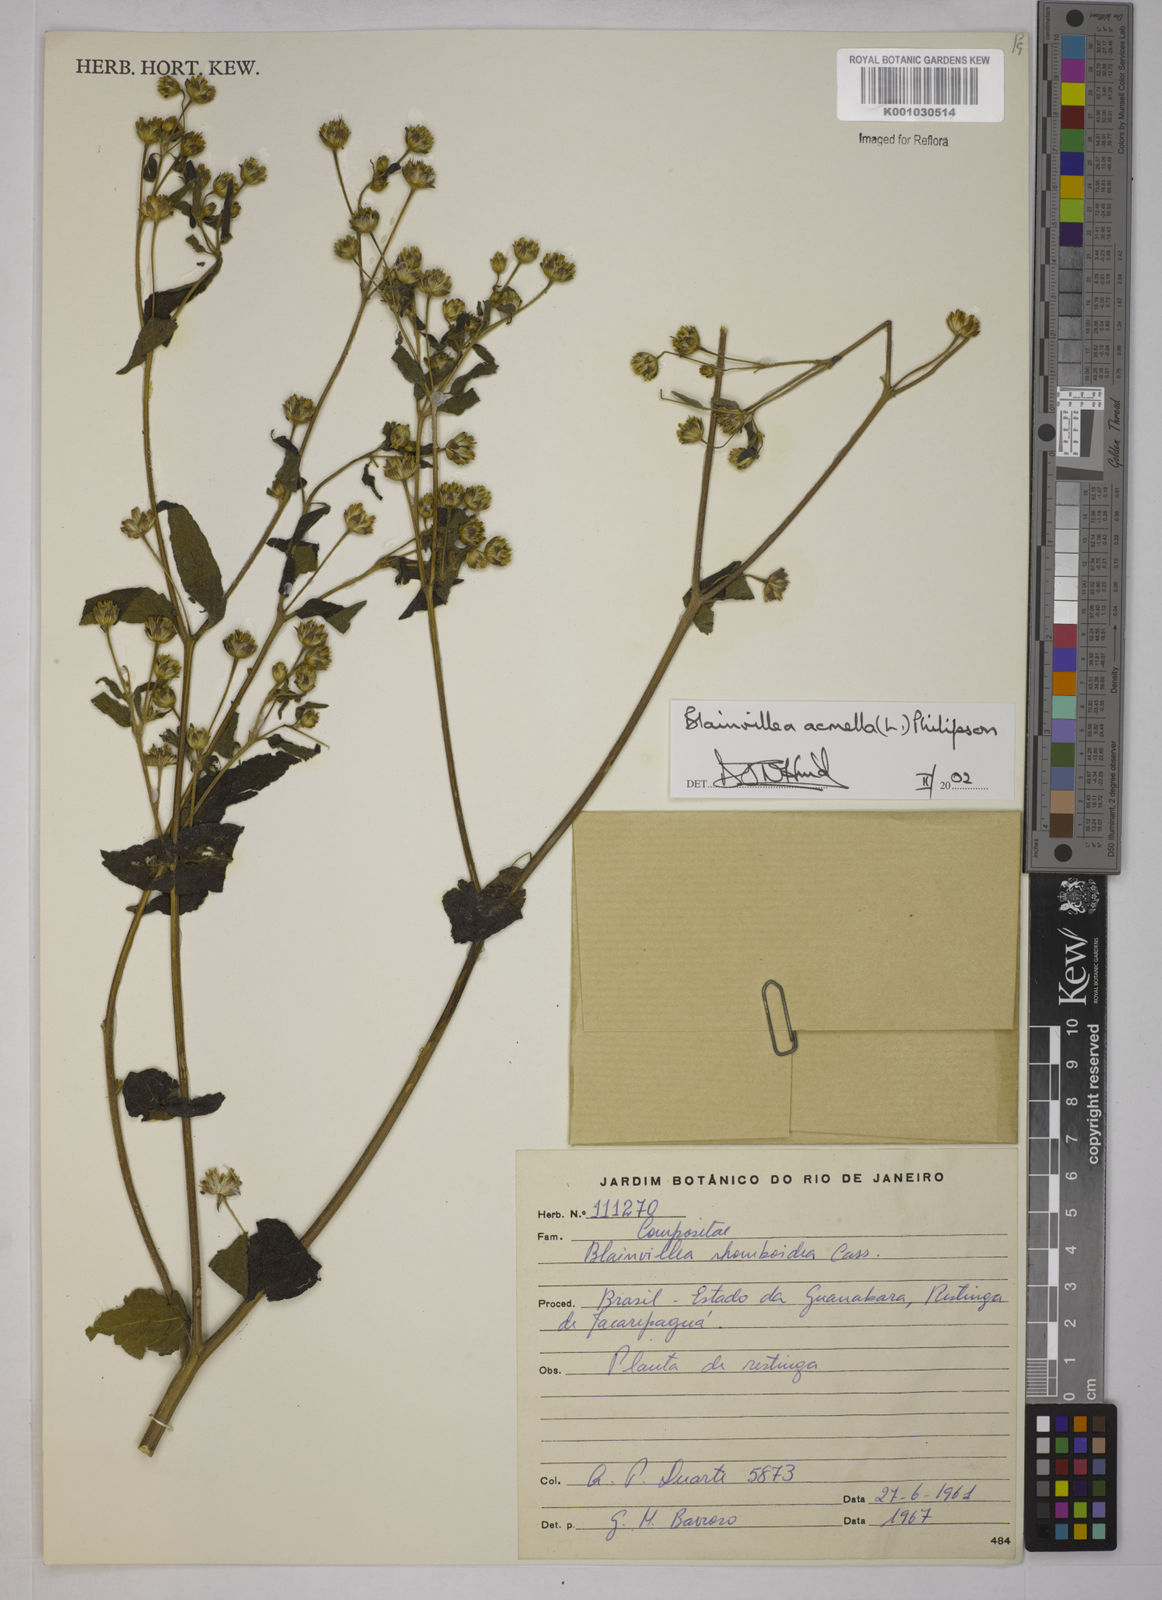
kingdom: Plantae
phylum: Tracheophyta
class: Magnoliopsida
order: Asterales
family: Asteraceae
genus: Blainvillea
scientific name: Blainvillea acmella
